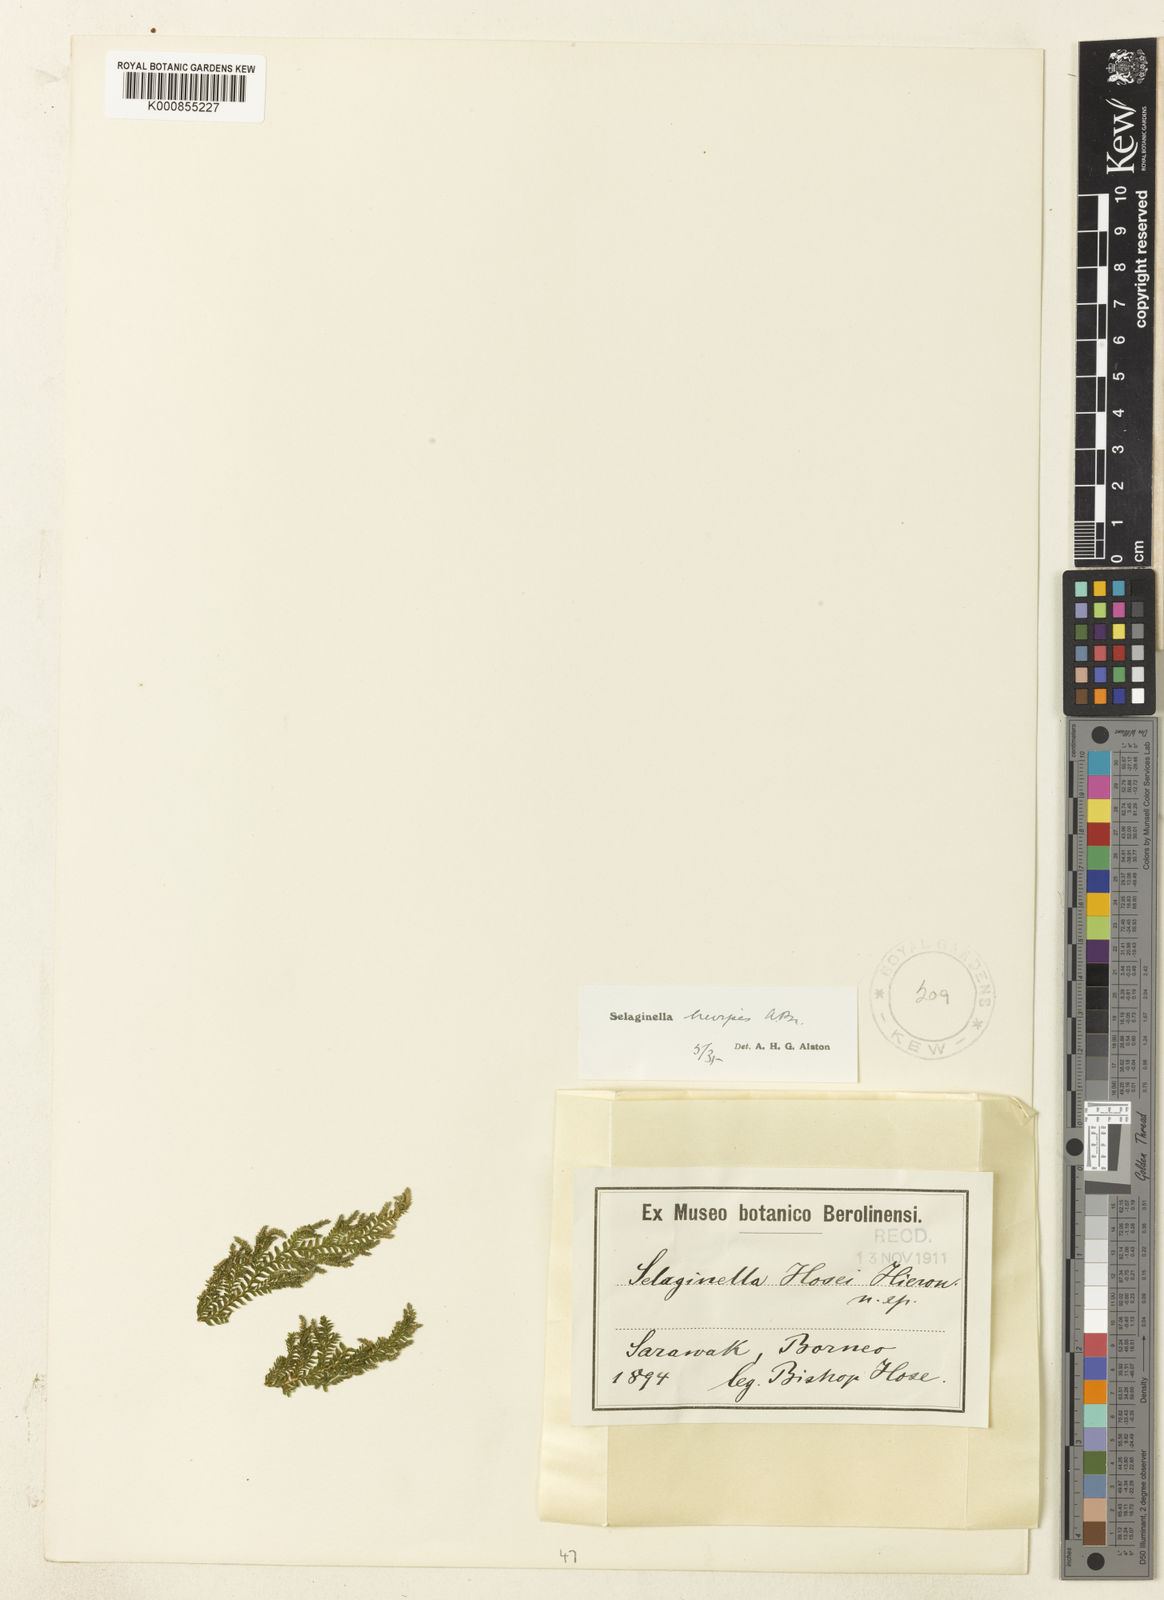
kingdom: Plantae
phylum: Tracheophyta
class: Lycopodiopsida
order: Selaginellales
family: Selaginellaceae
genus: Selaginella
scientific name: Selaginella
